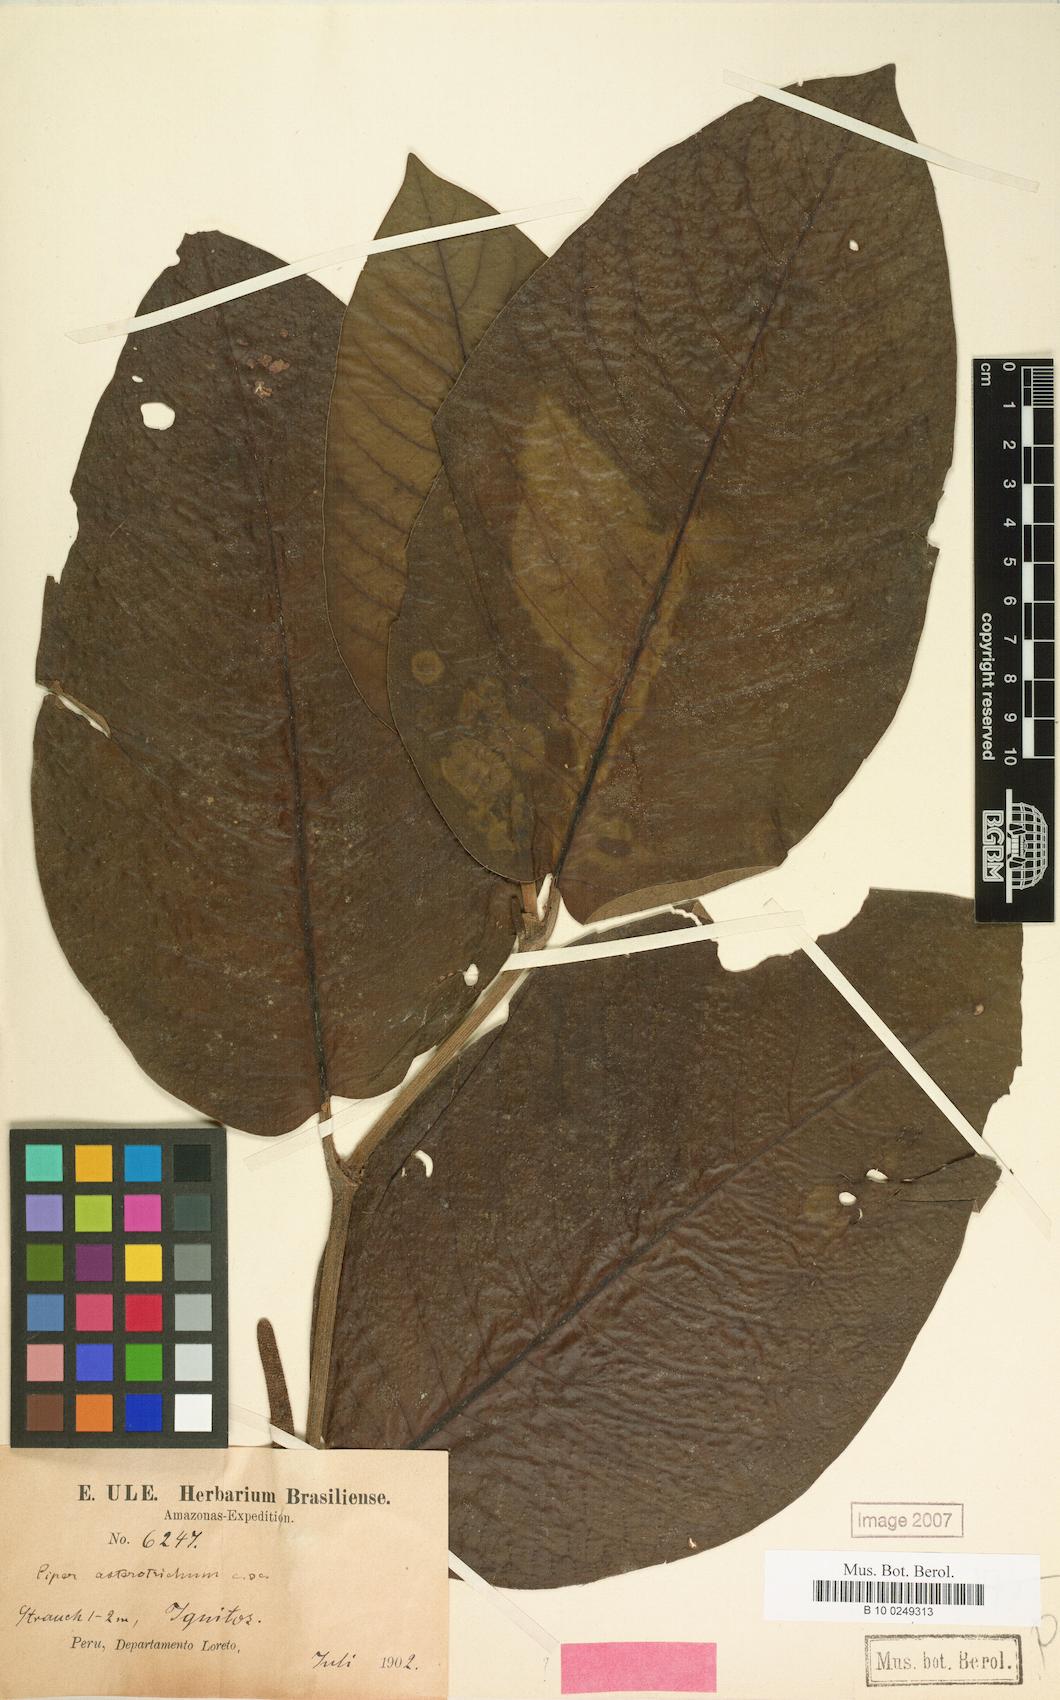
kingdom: Plantae
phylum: Tracheophyta
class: Magnoliopsida
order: Piperales
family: Piperaceae
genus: Piper
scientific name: Piper asterotrichum
